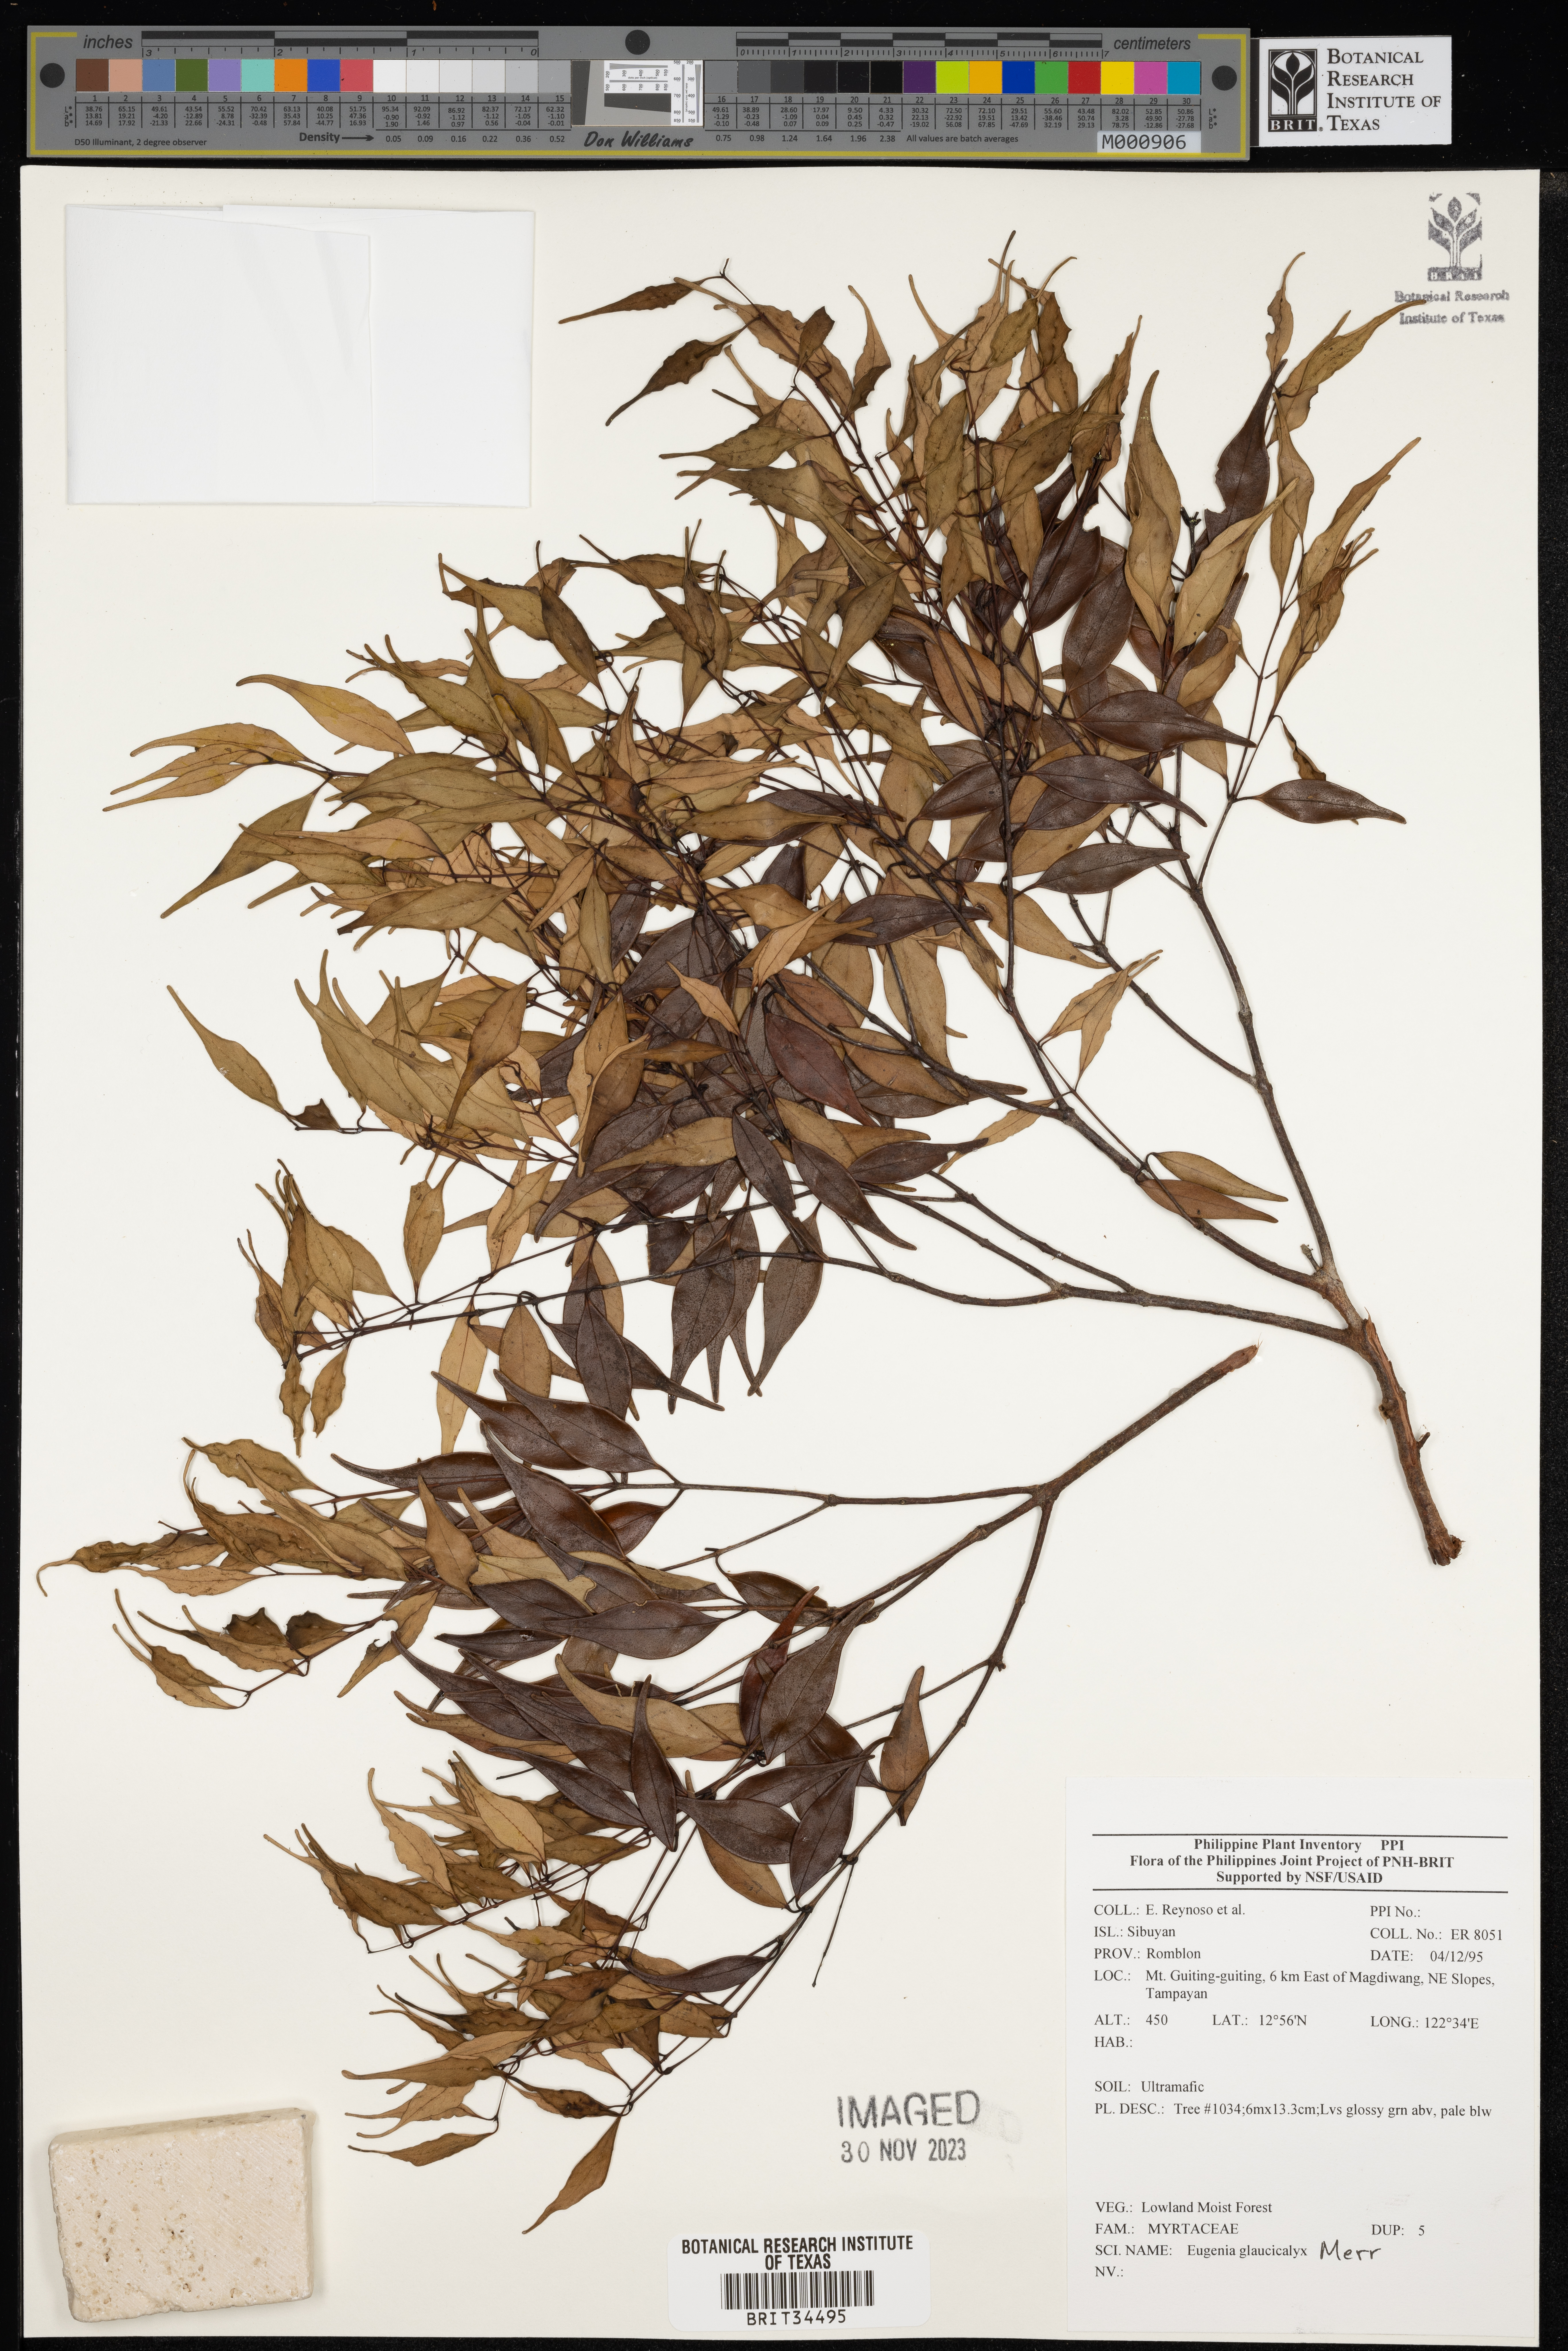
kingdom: Plantae
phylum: Tracheophyta
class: Magnoliopsida
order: Myrtales
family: Myrtaceae
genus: Eugenia
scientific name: Eugenia
